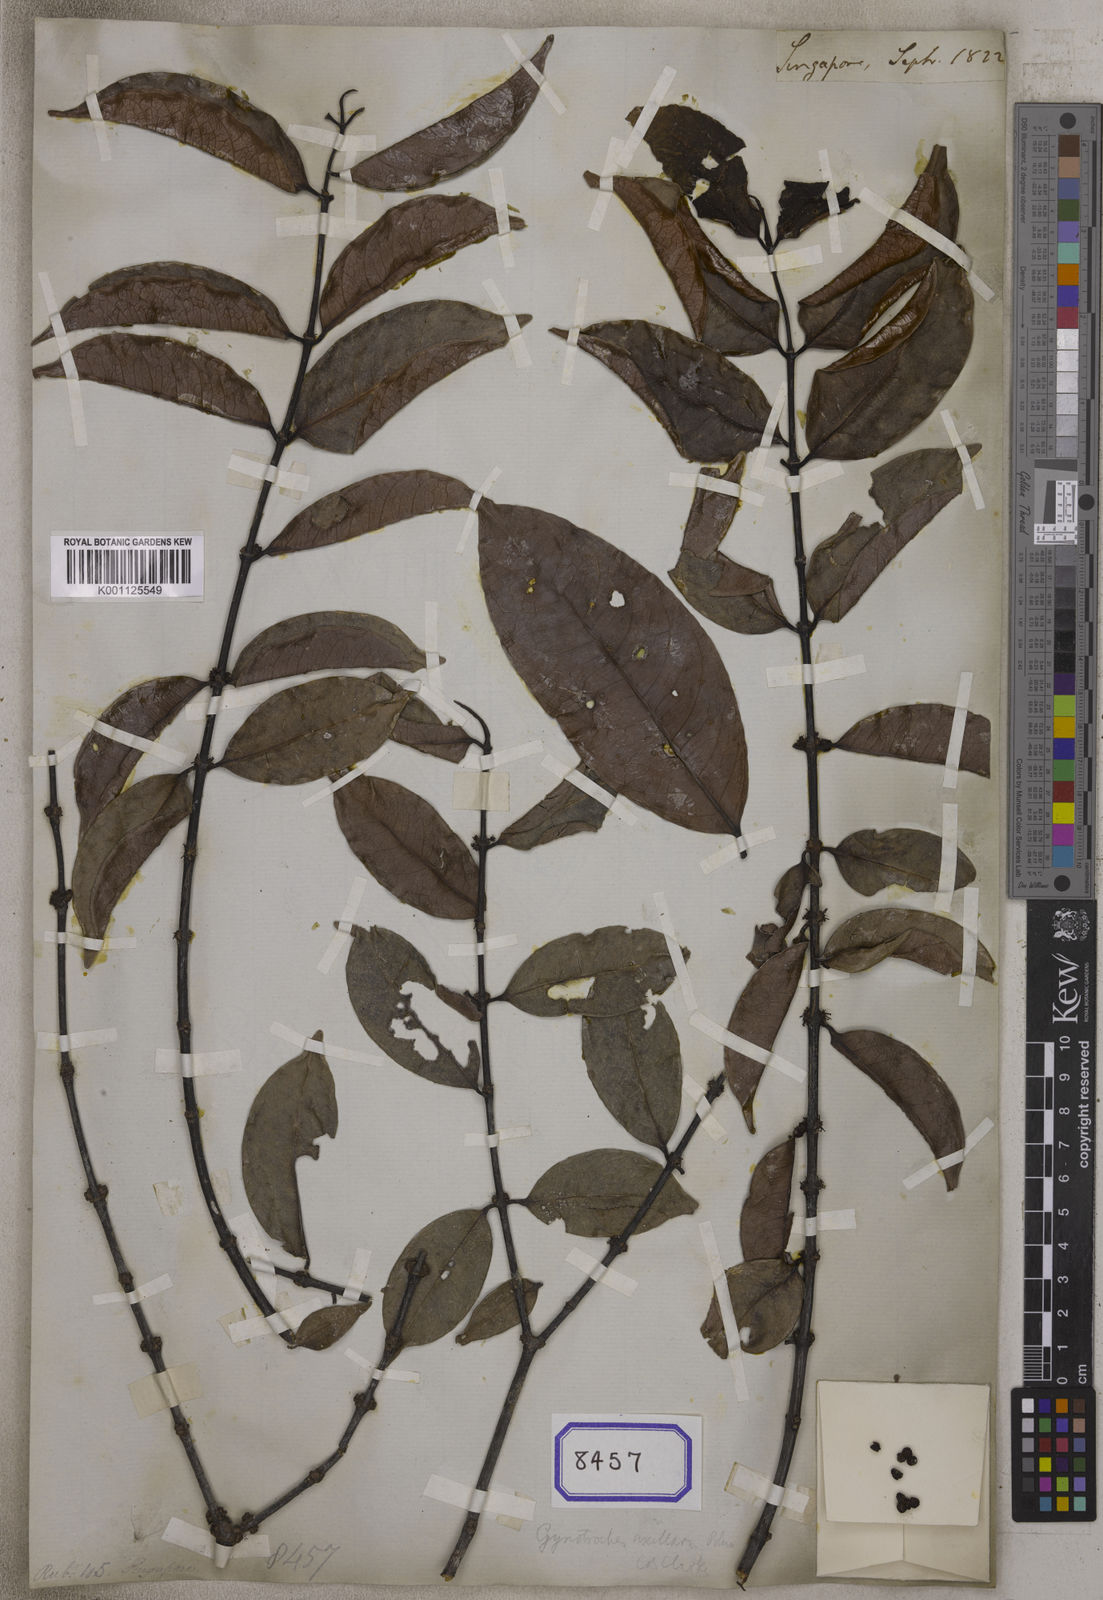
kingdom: Plantae
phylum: Tracheophyta
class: Magnoliopsida
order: Gentianales
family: Rubiaceae
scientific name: Rubiaceae
